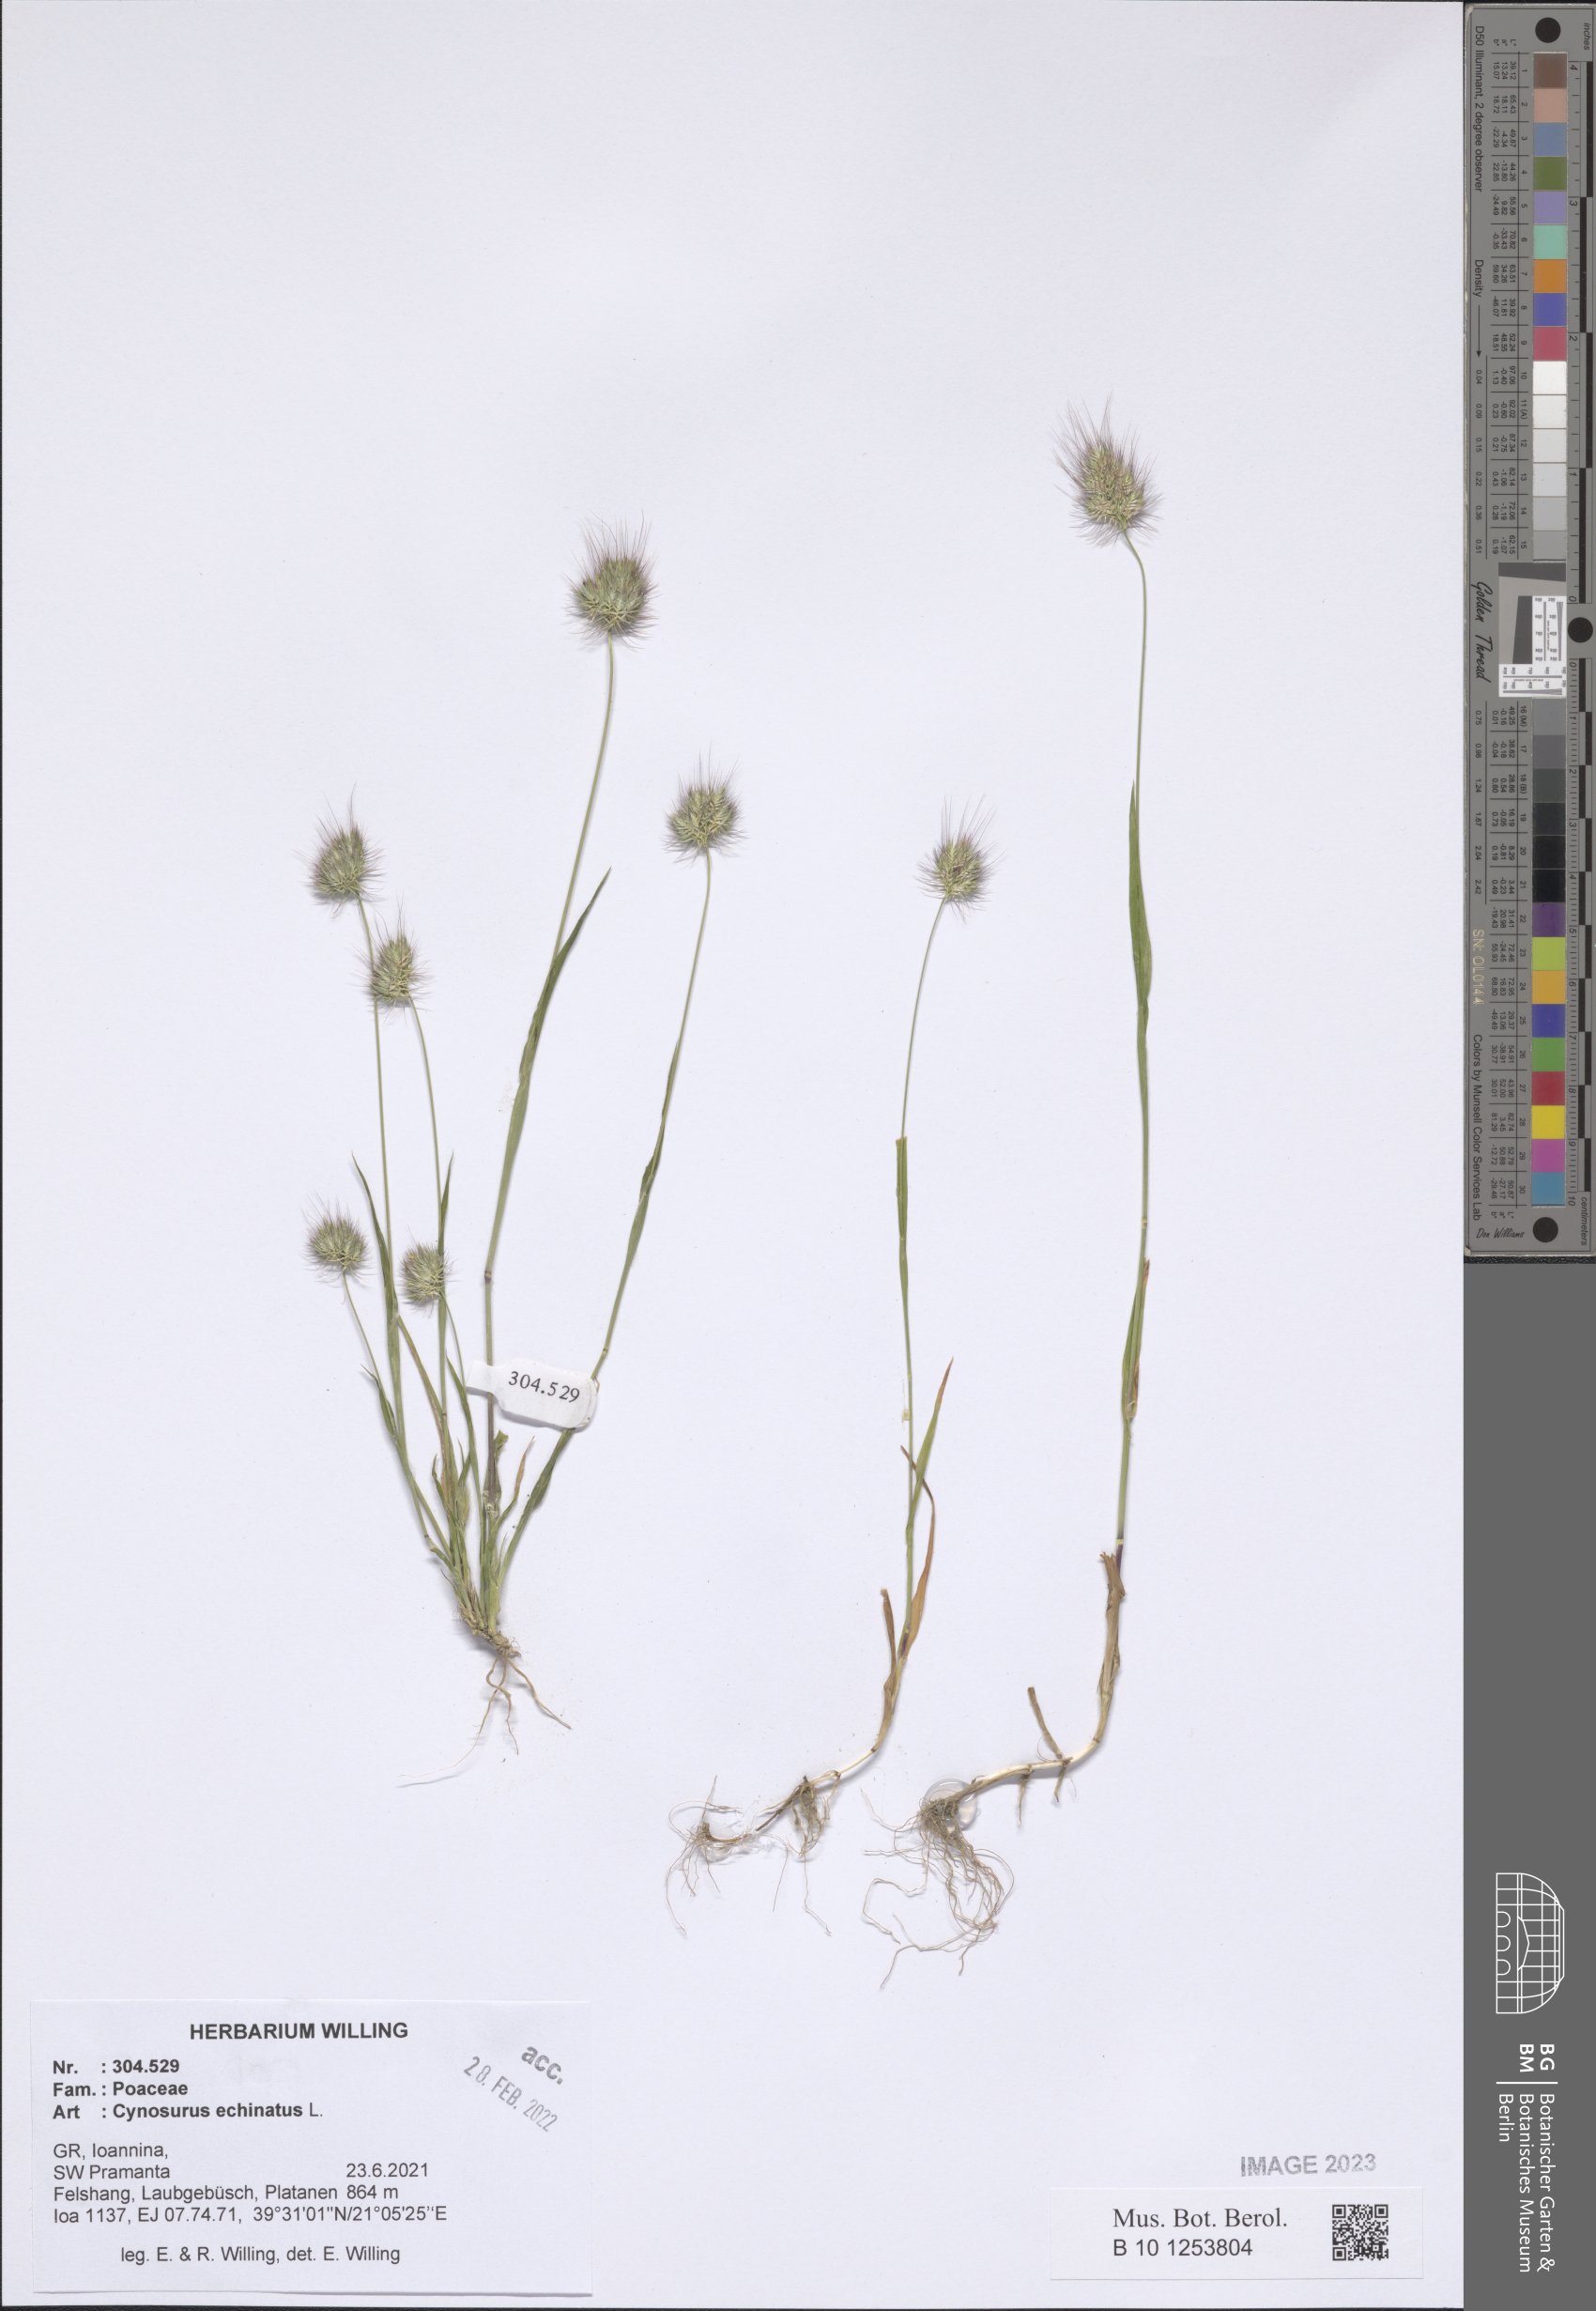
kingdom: Plantae
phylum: Tracheophyta
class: Liliopsida
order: Poales
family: Poaceae
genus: Cynosurus
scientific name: Cynosurus echinatus
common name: Rough dog's-tail
